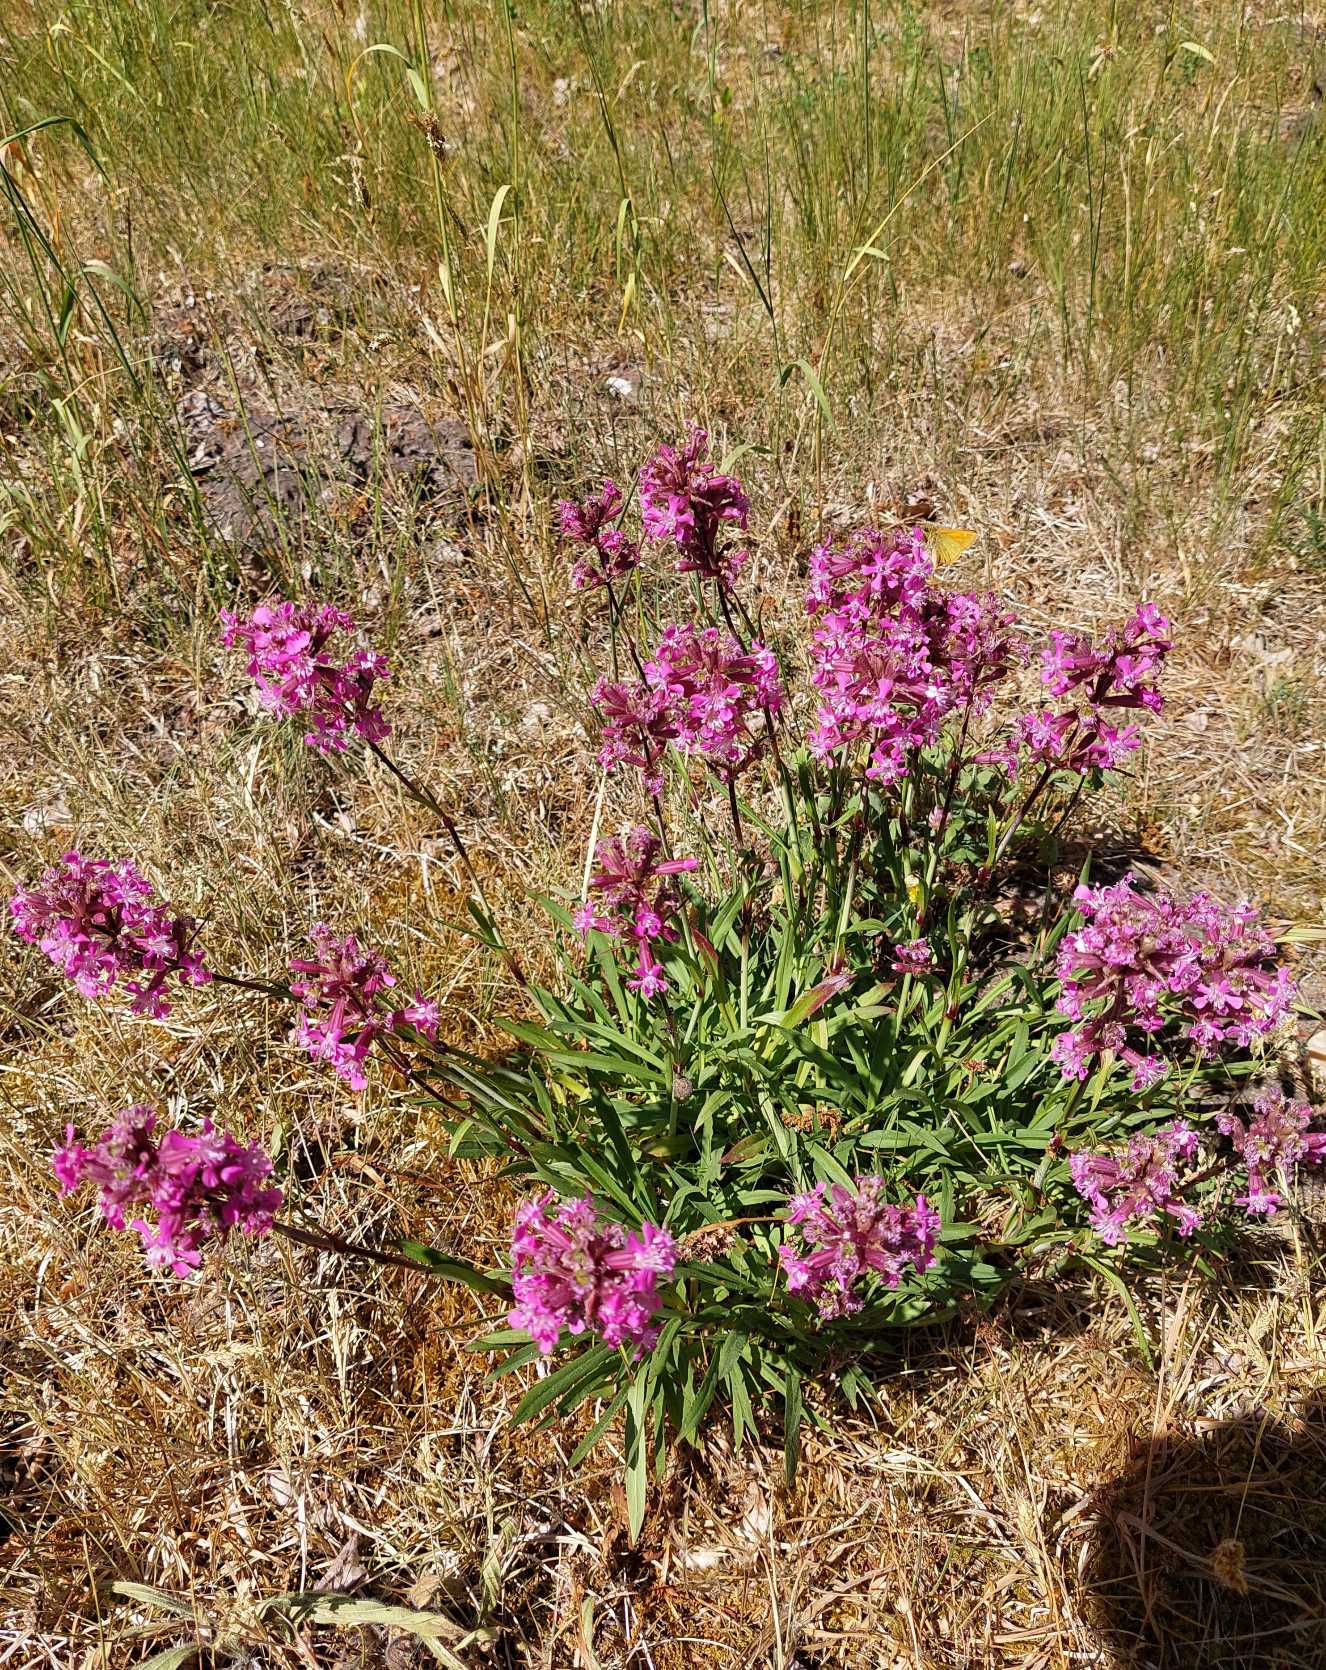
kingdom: Plantae
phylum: Tracheophyta
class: Magnoliopsida
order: Caryophyllales
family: Caryophyllaceae
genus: Viscaria
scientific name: Viscaria vulgaris
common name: Tjærenellike
